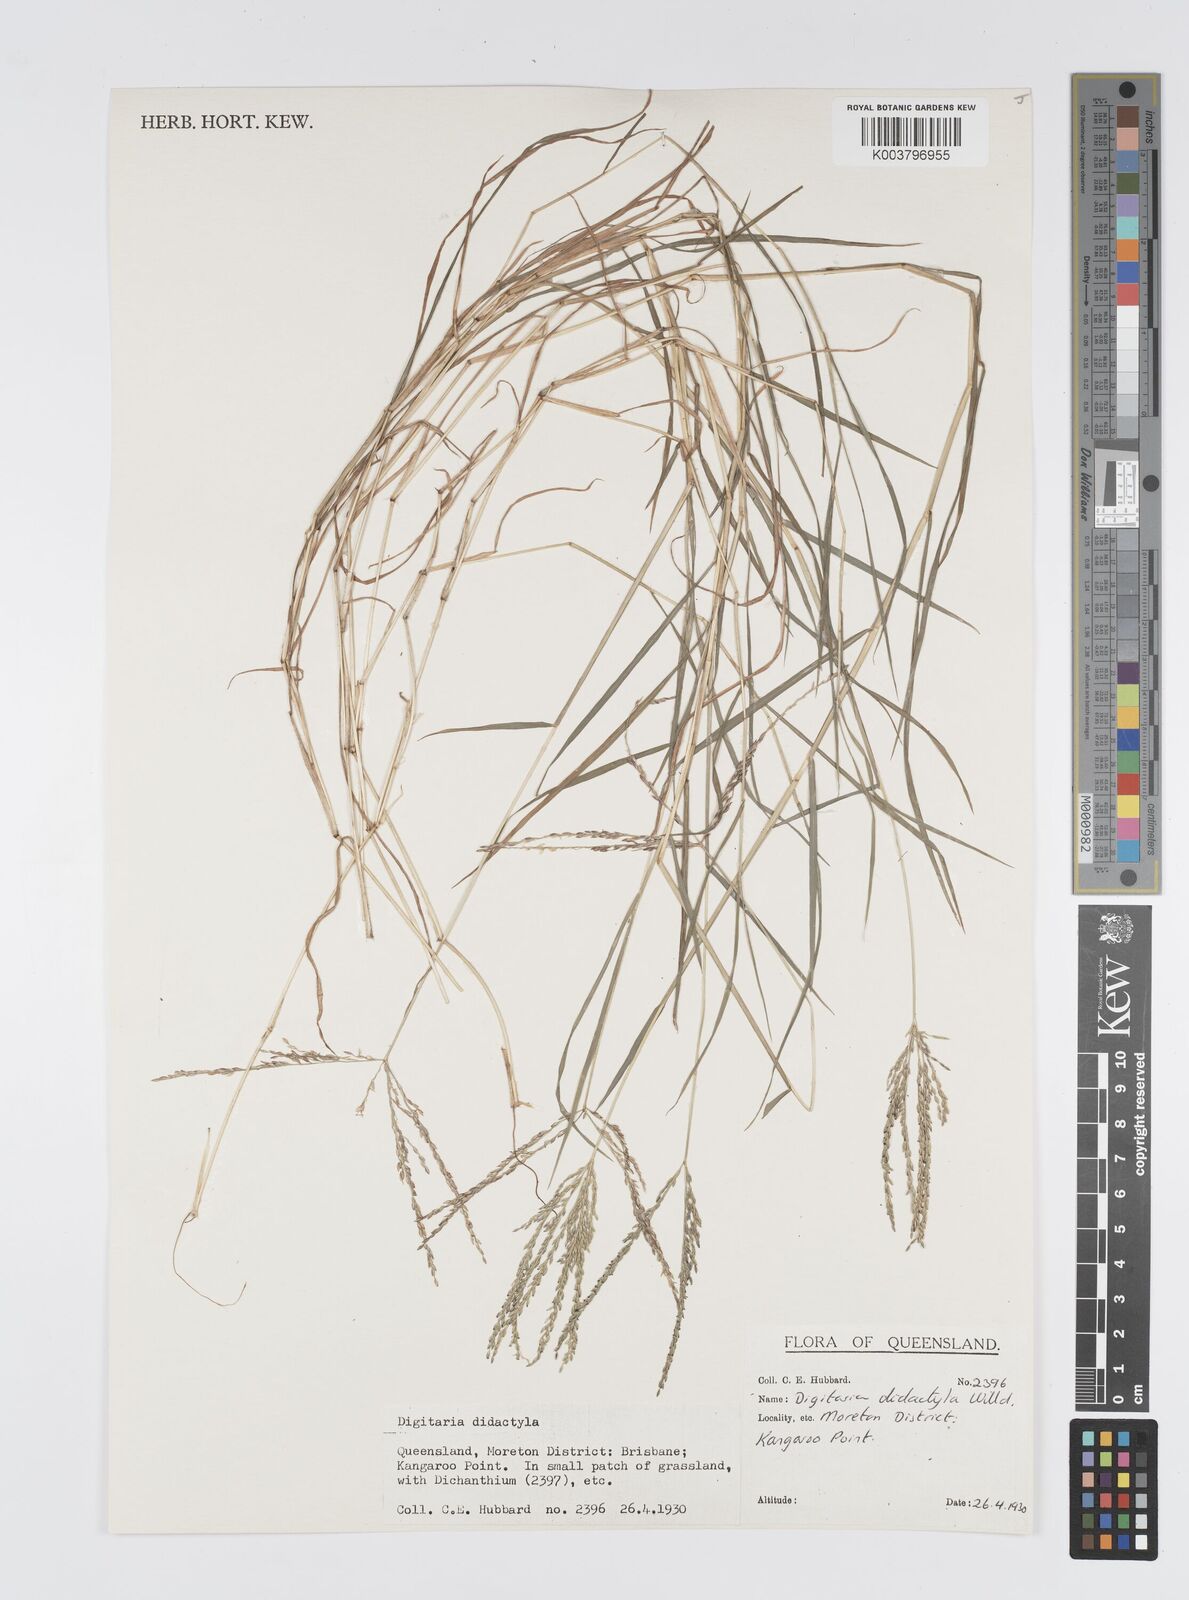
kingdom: Plantae
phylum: Tracheophyta
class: Liliopsida
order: Poales
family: Poaceae
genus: Digitaria
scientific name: Digitaria didactyla
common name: Blue couch
